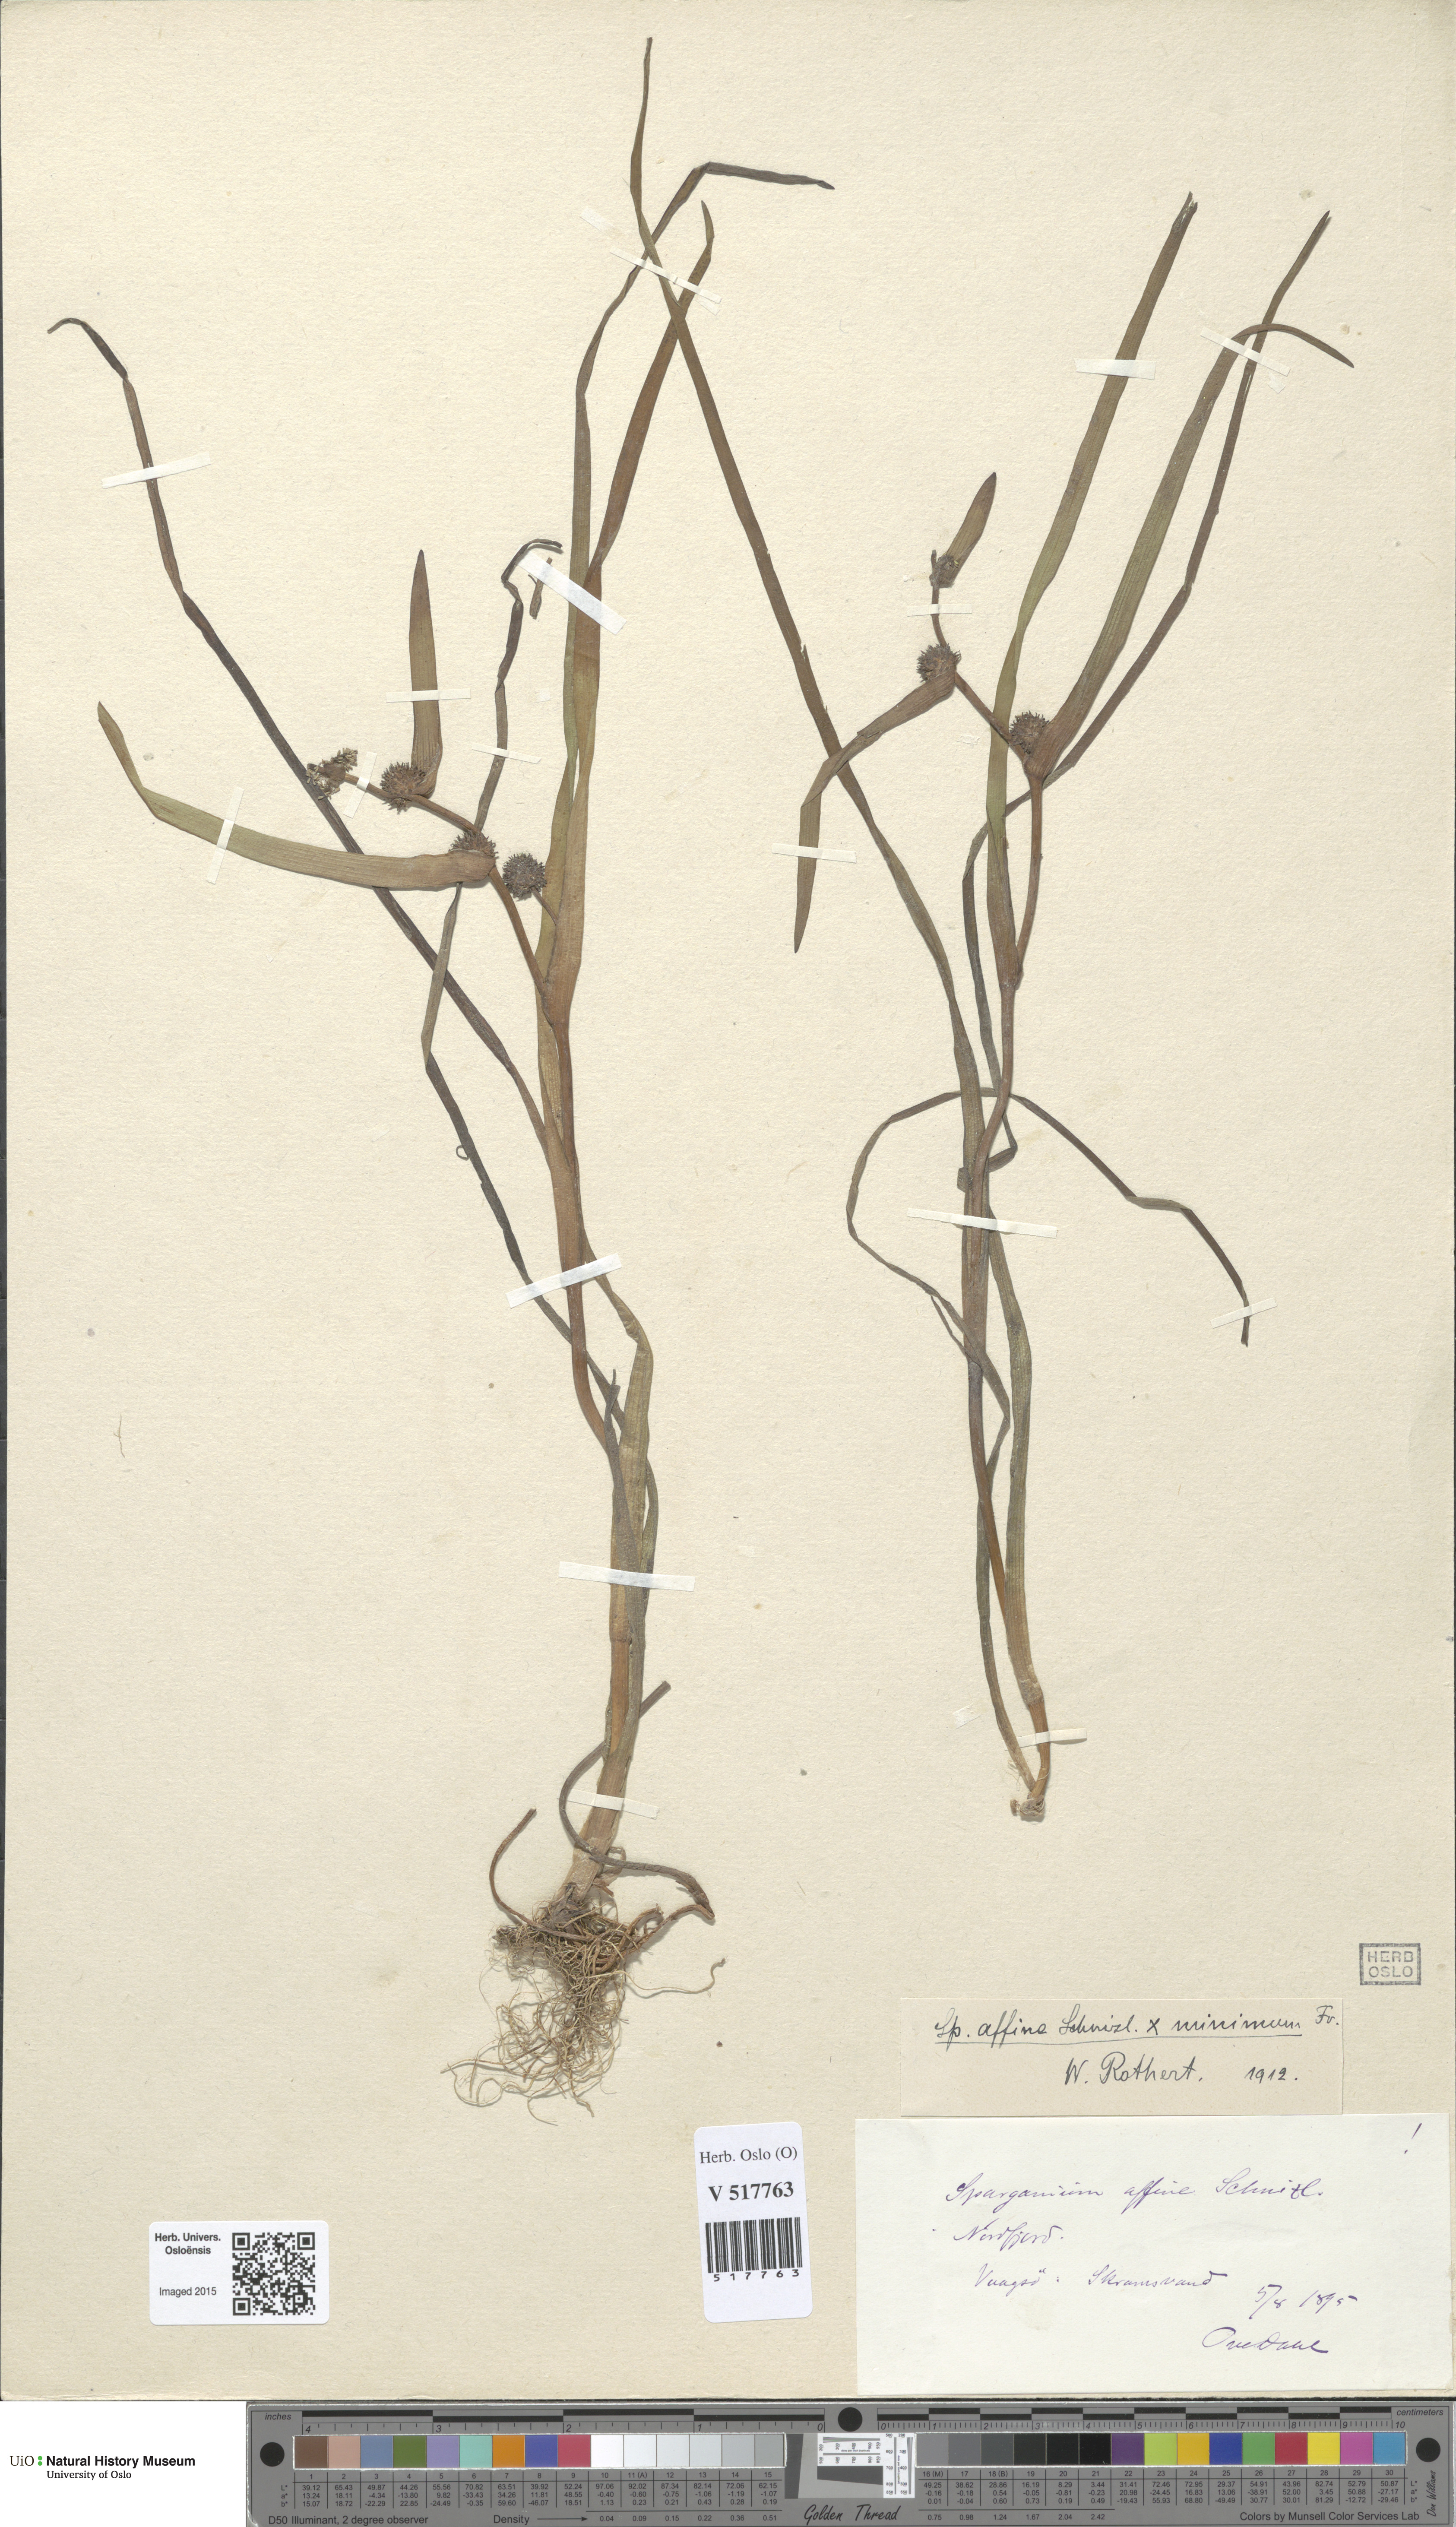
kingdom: Plantae
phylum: Tracheophyta
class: Liliopsida
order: Poales
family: Typhaceae
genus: Sparganium
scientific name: Sparganium
